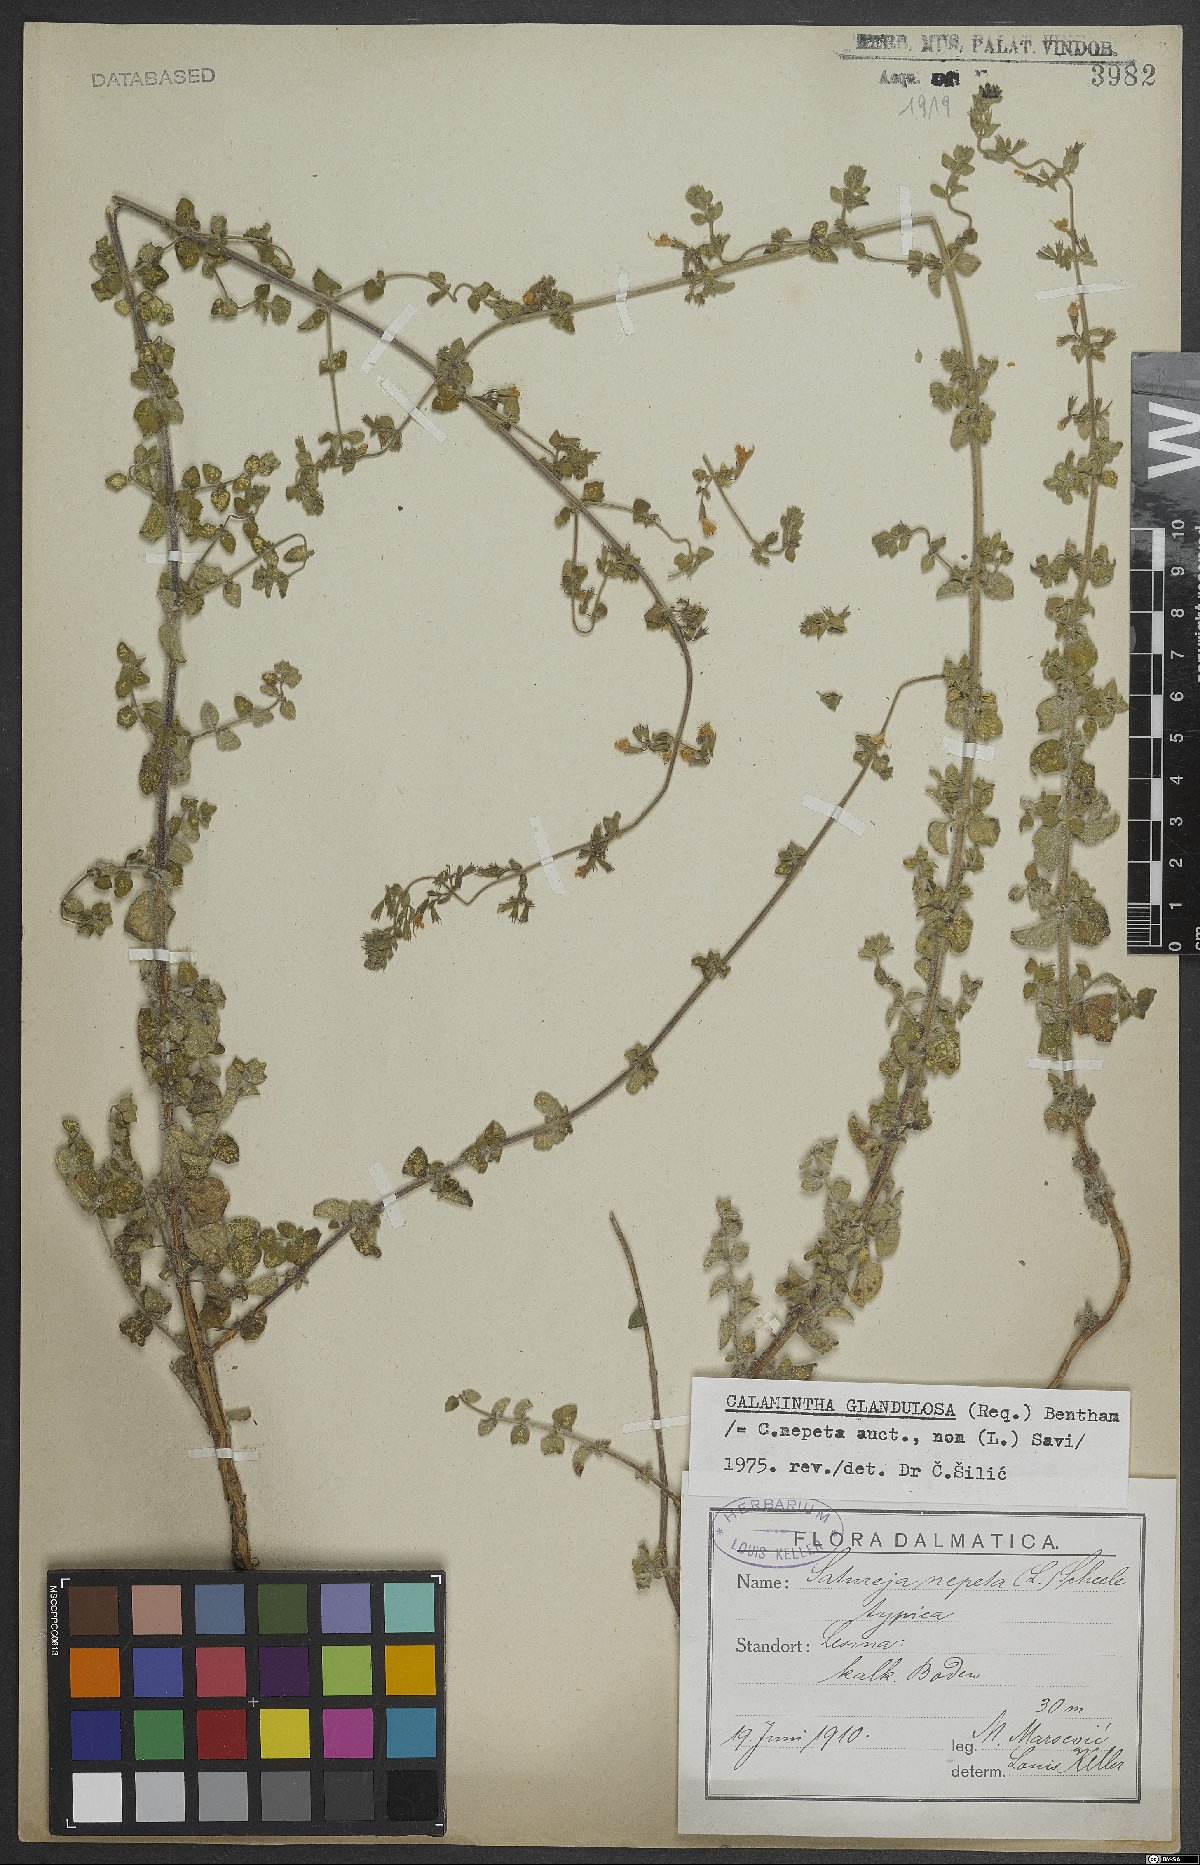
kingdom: Plantae
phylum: Tracheophyta
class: Magnoliopsida
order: Lamiales
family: Lamiaceae
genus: Clinopodium
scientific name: Clinopodium nepeta
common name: Lesser calamint
